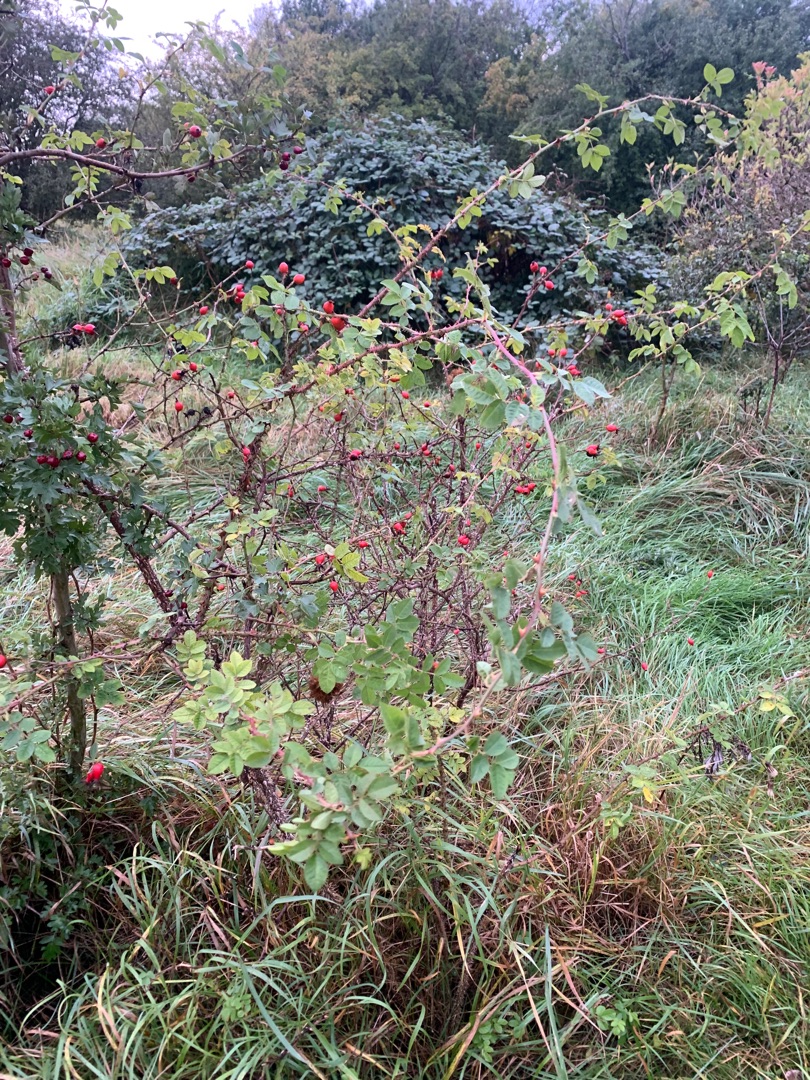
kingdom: Plantae
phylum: Tracheophyta
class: Magnoliopsida
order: Rosales
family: Rosaceae
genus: Rosa
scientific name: Rosa rubiginosa
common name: Æble-rose
